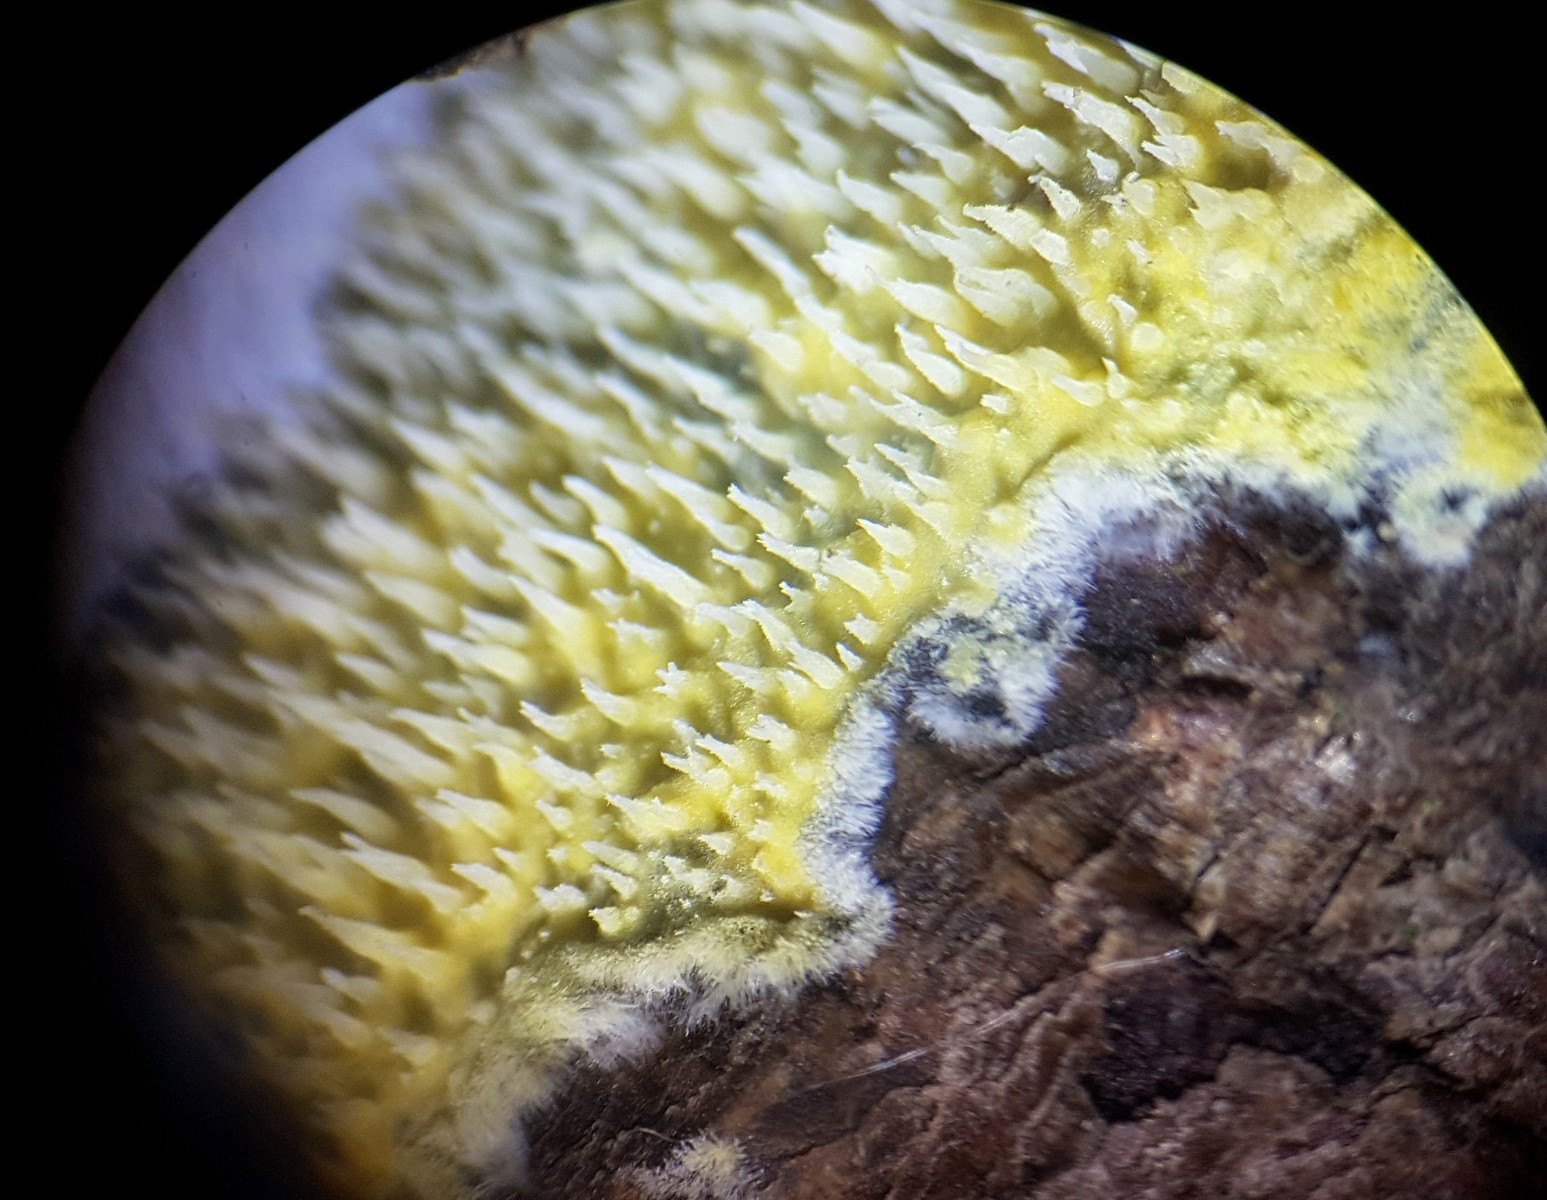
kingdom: Fungi
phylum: Basidiomycota
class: Agaricomycetes
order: Polyporales
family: Meruliaceae
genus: Mycoacia
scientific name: Mycoacia uda
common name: citrongul vokspig
